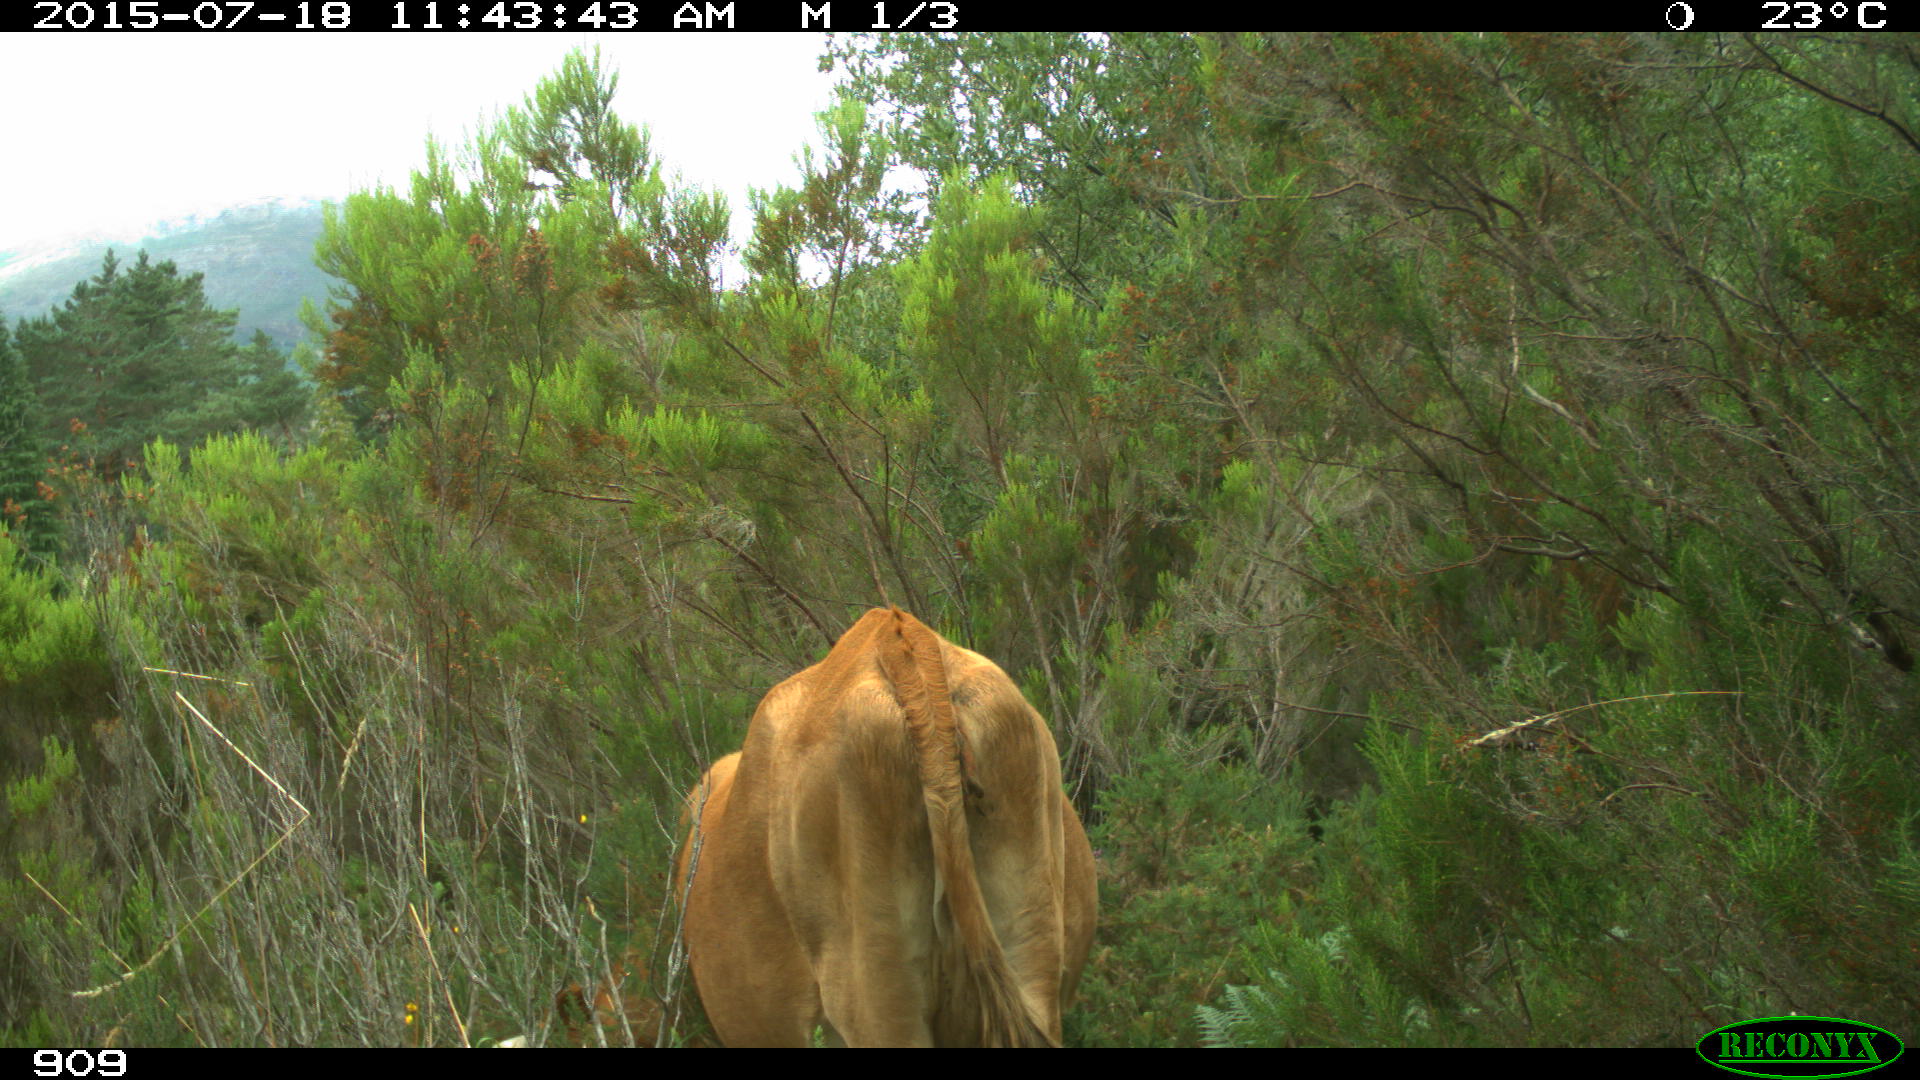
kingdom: Animalia
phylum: Chordata
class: Mammalia
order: Artiodactyla
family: Bovidae
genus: Bos
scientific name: Bos taurus
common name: Domesticated cattle
